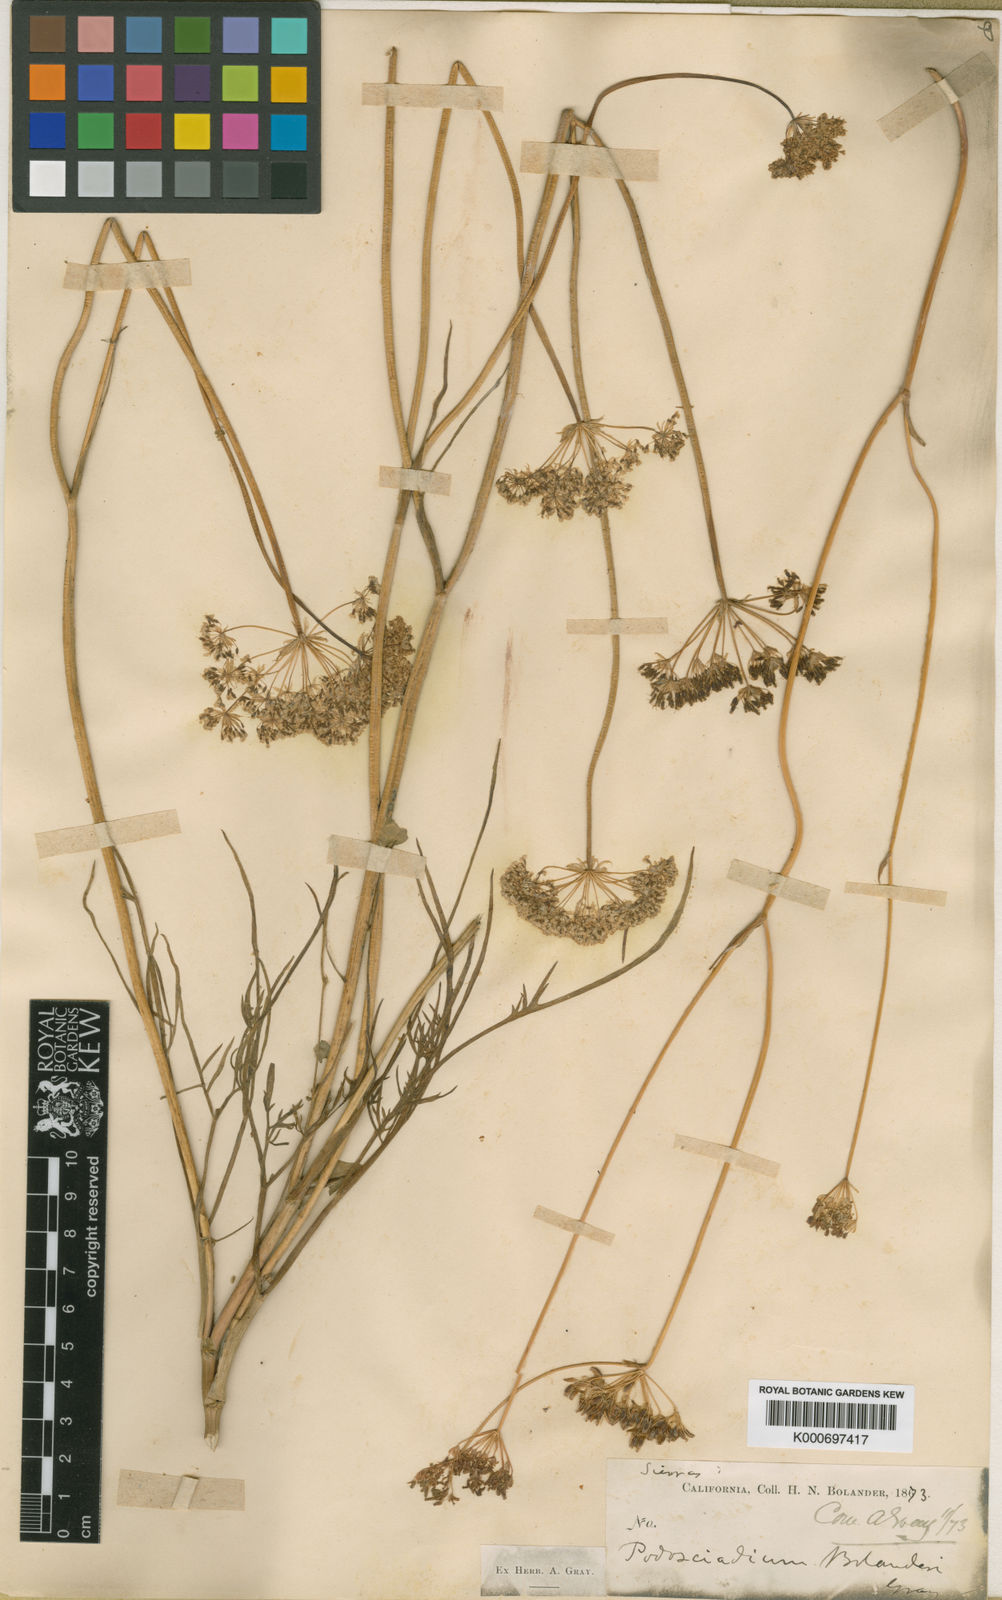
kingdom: Plantae
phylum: Tracheophyta
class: Magnoliopsida
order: Apiales
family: Apiaceae
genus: Perideridia
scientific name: Perideridia bolanderi
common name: Olasi
